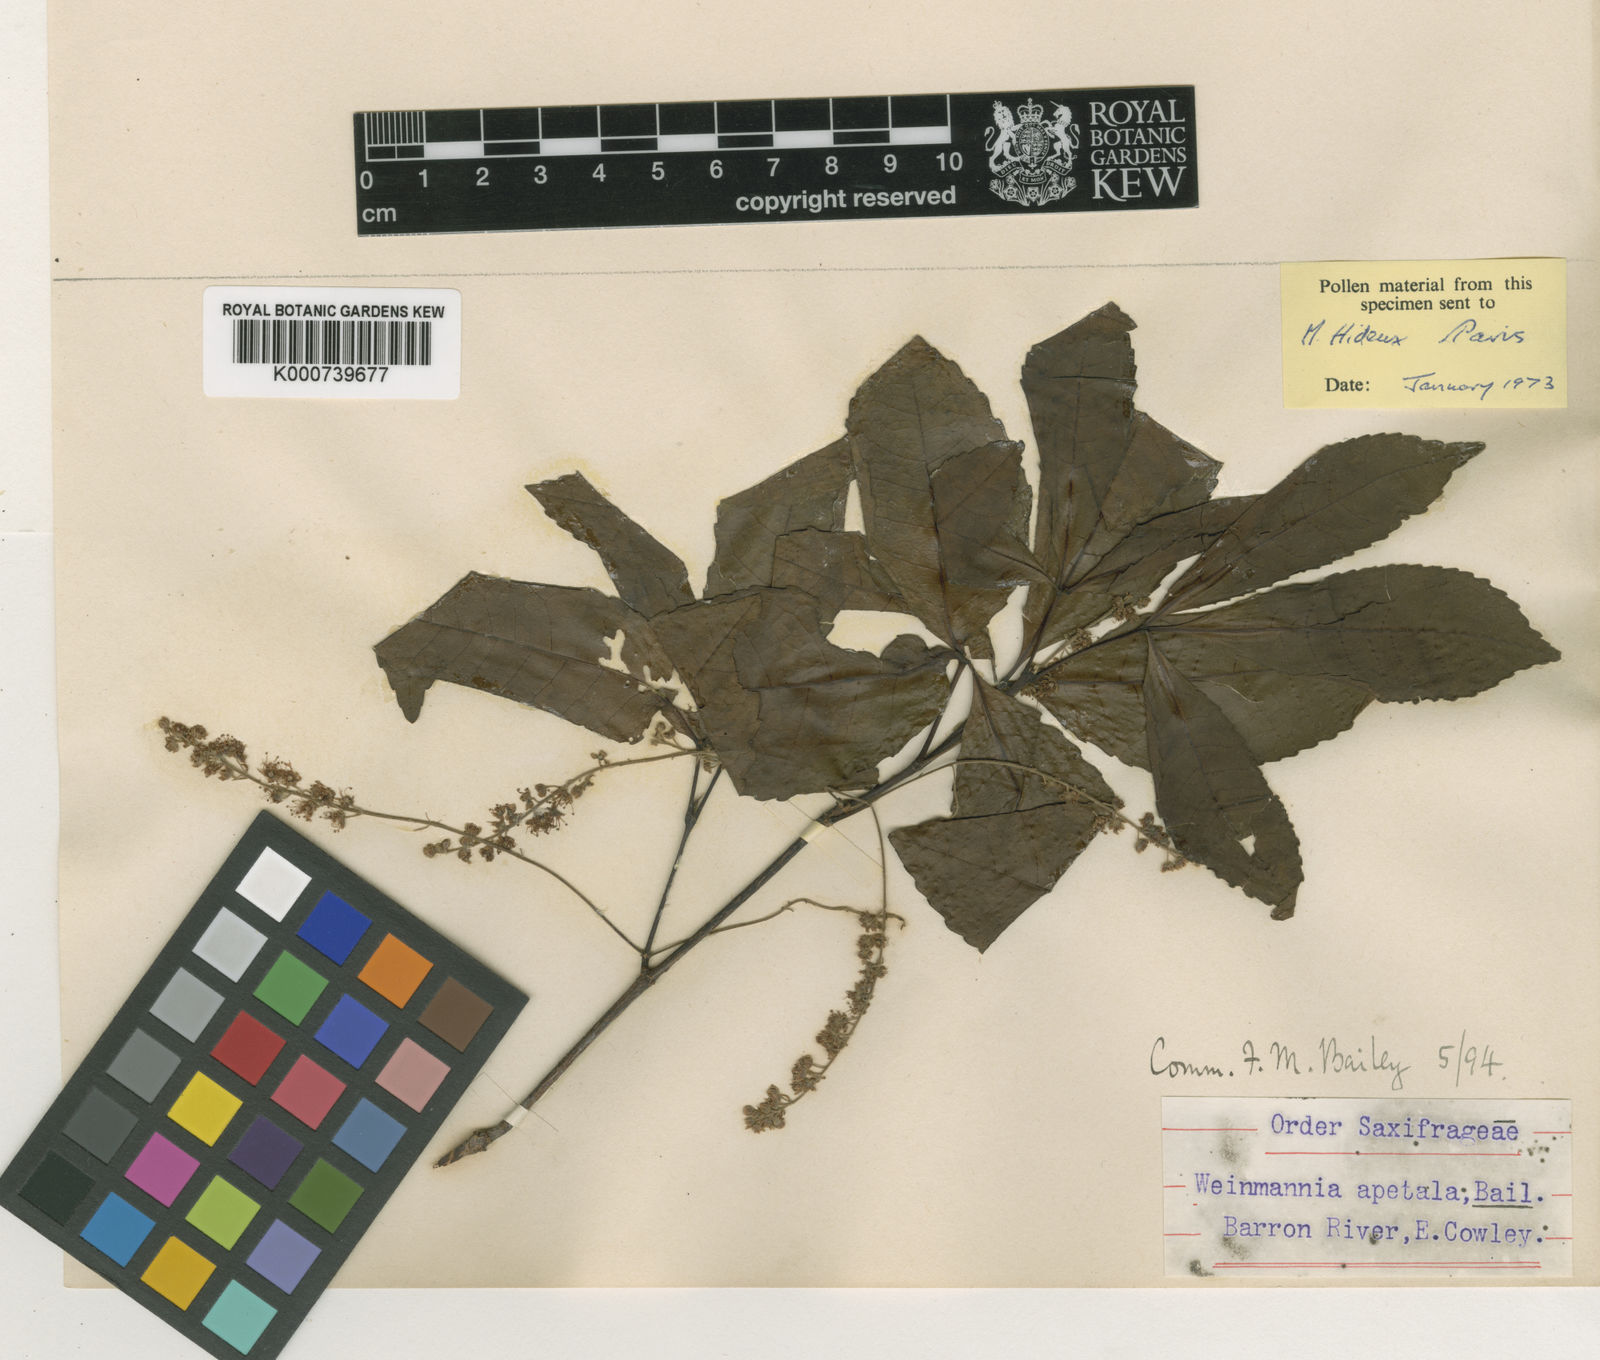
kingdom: Plantae
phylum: Tracheophyta
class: Magnoliopsida
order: Oxalidales
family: Cunoniaceae
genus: Pseudoweinmannia
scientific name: Pseudoweinmannia apetala
